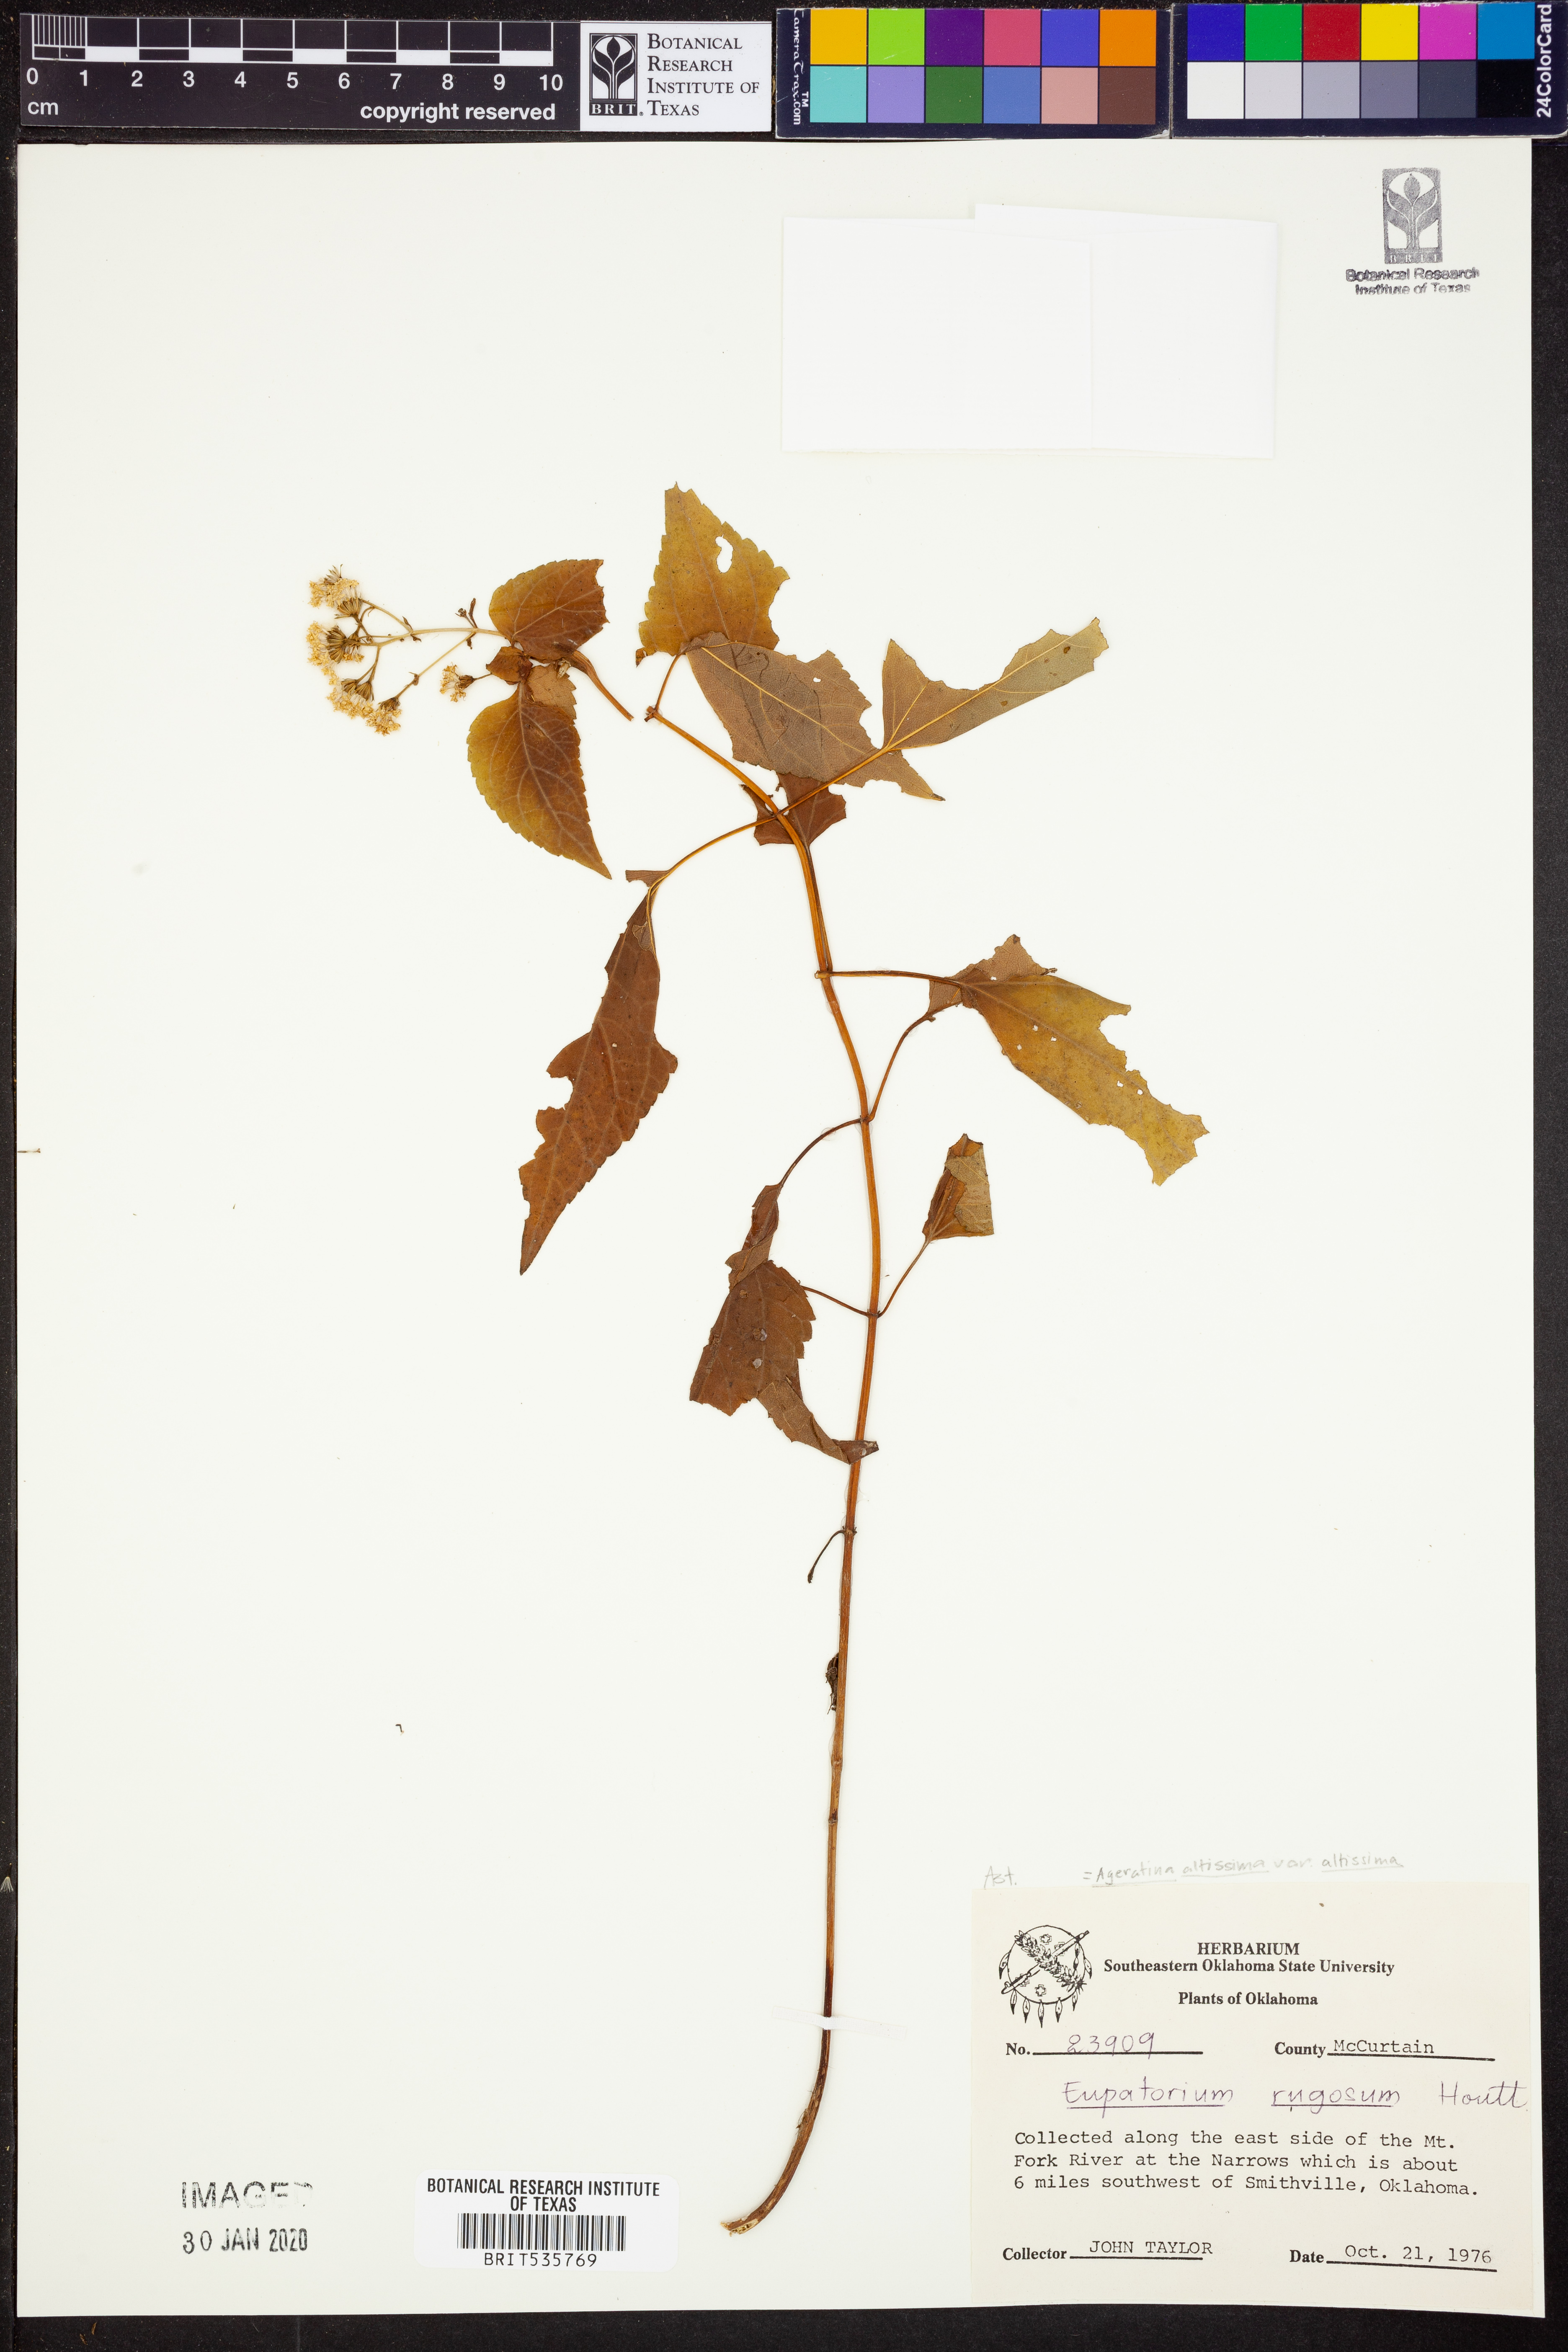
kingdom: Plantae
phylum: Tracheophyta
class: Magnoliopsida
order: Asterales
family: Asteraceae
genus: Ageratina
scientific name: Ageratina altissima
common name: White snakeroot
